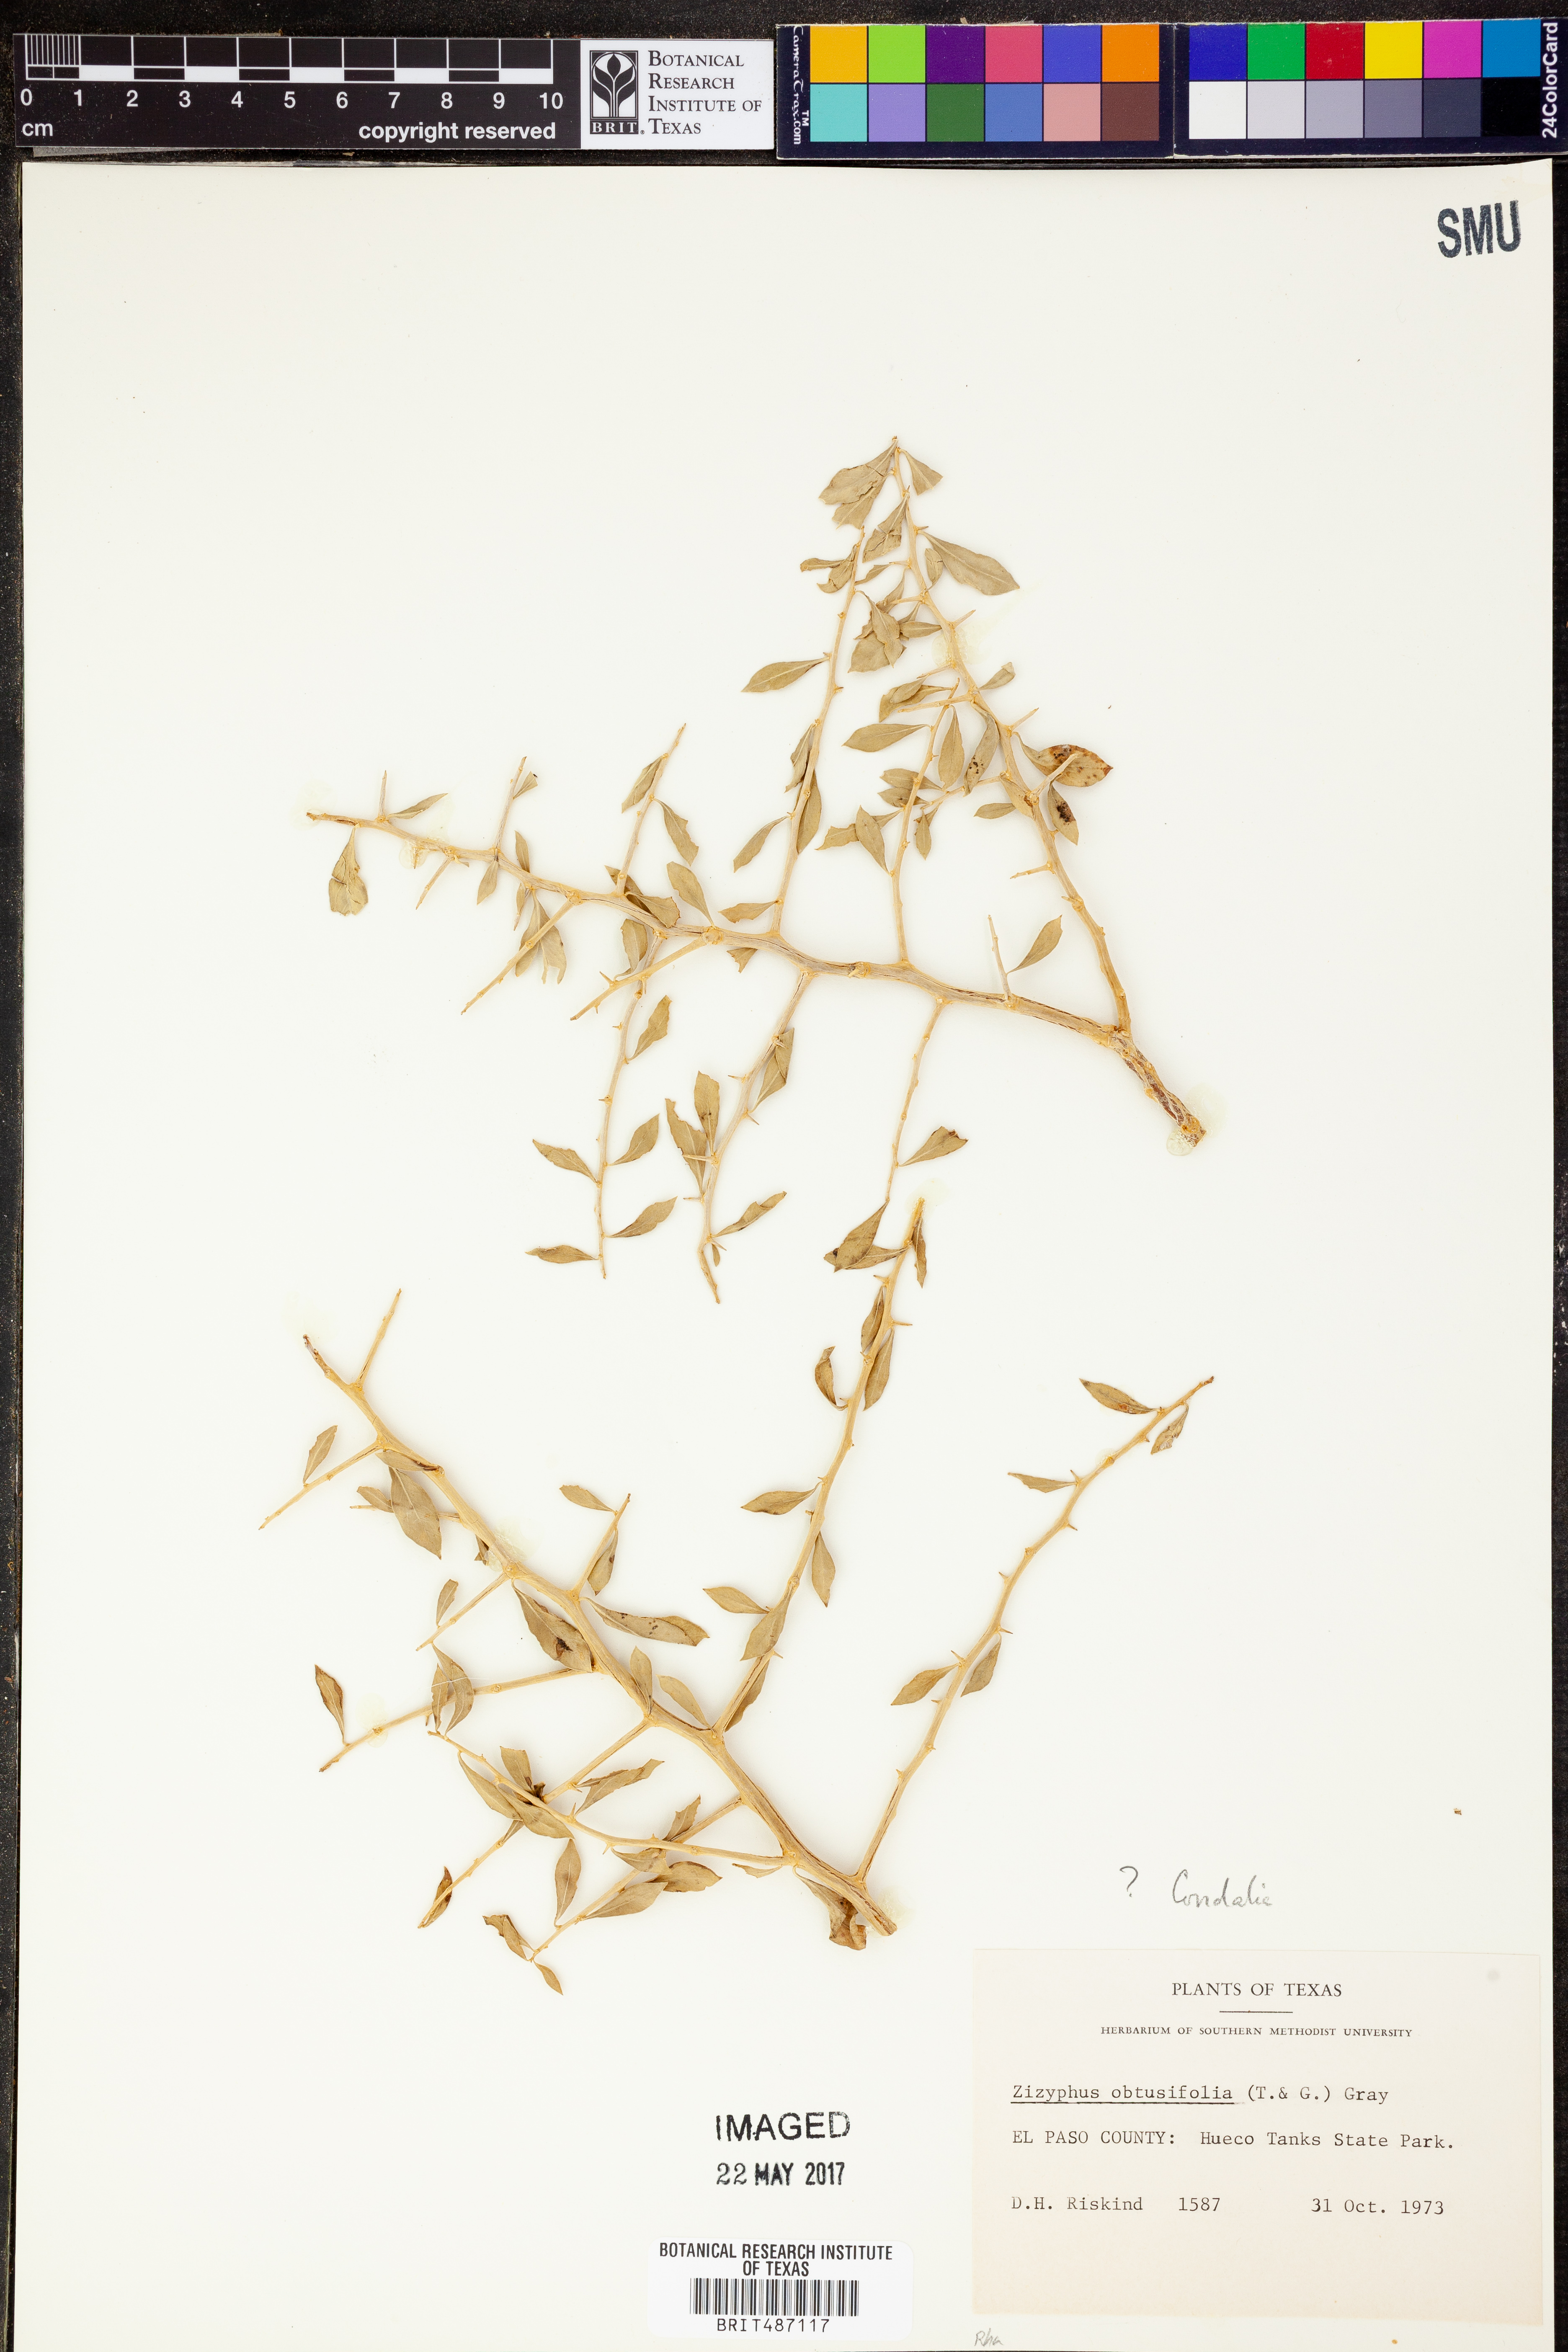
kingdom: Plantae
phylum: Tracheophyta
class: Magnoliopsida
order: Rosales
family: Rhamnaceae
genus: Sarcomphalus
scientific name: Sarcomphalus obtusifolius
